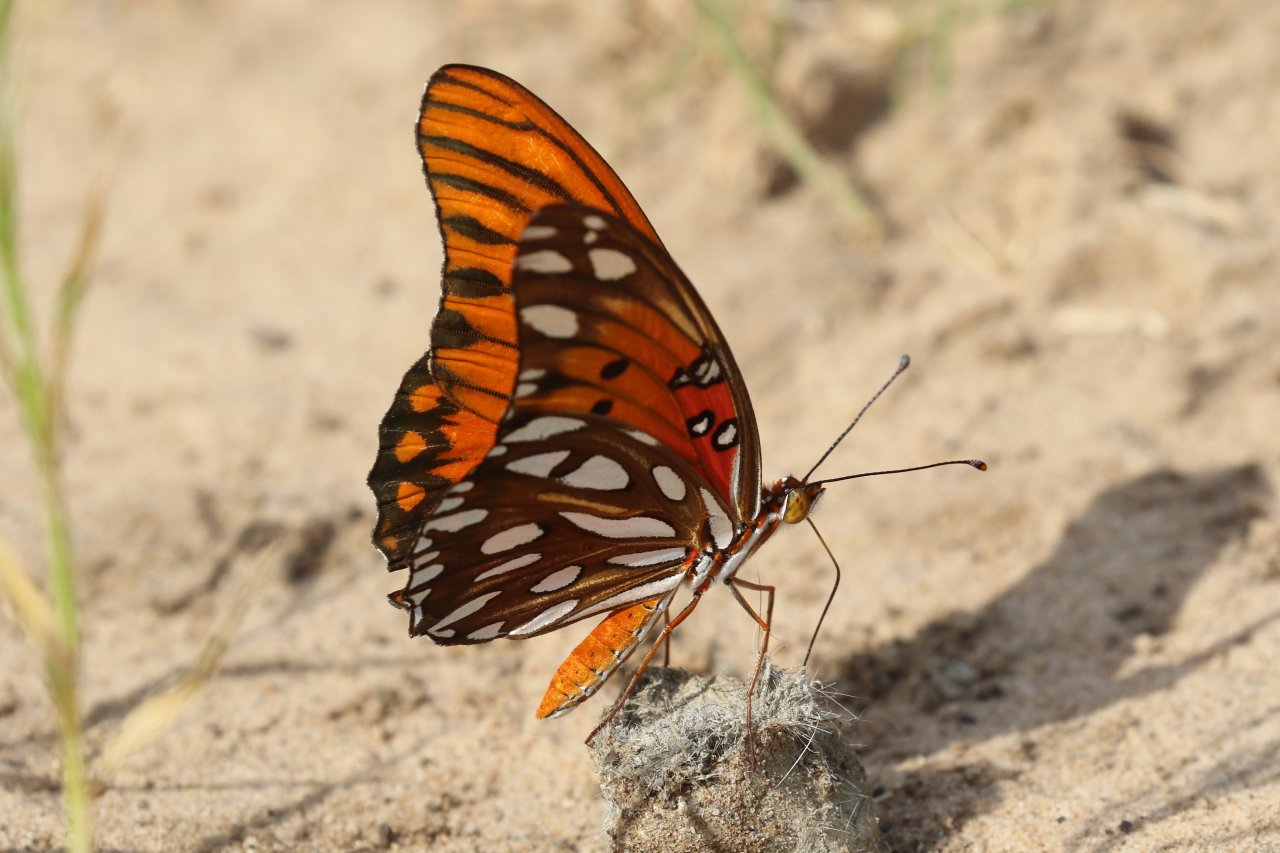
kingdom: Animalia
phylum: Arthropoda
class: Insecta
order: Lepidoptera
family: Nymphalidae
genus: Dione
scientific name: Dione vanillae
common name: Gulf Fritillary
